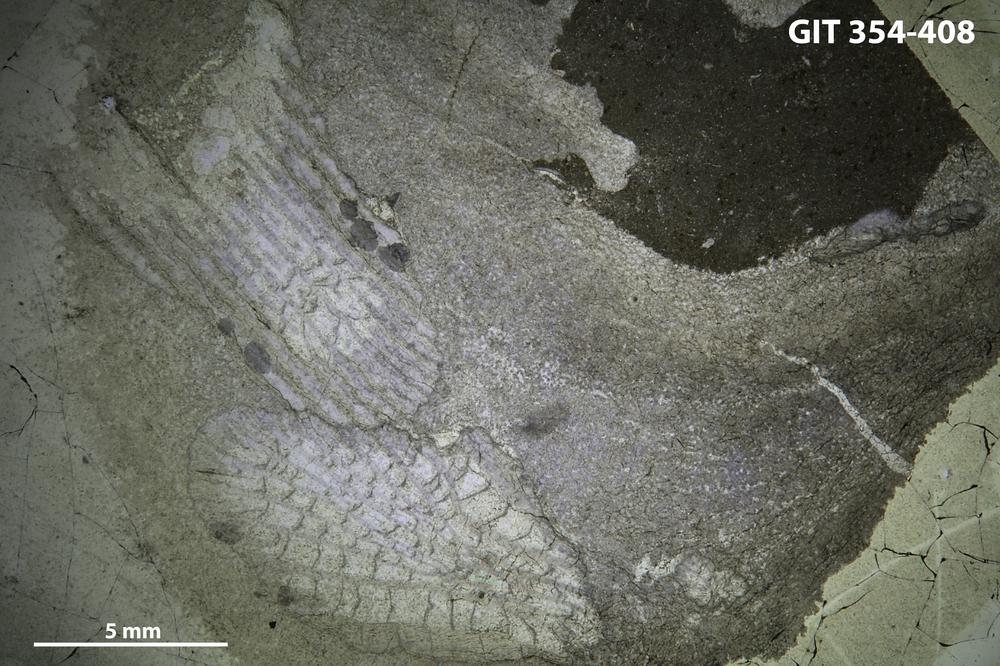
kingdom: Animalia
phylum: Porifera
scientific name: Porifera
